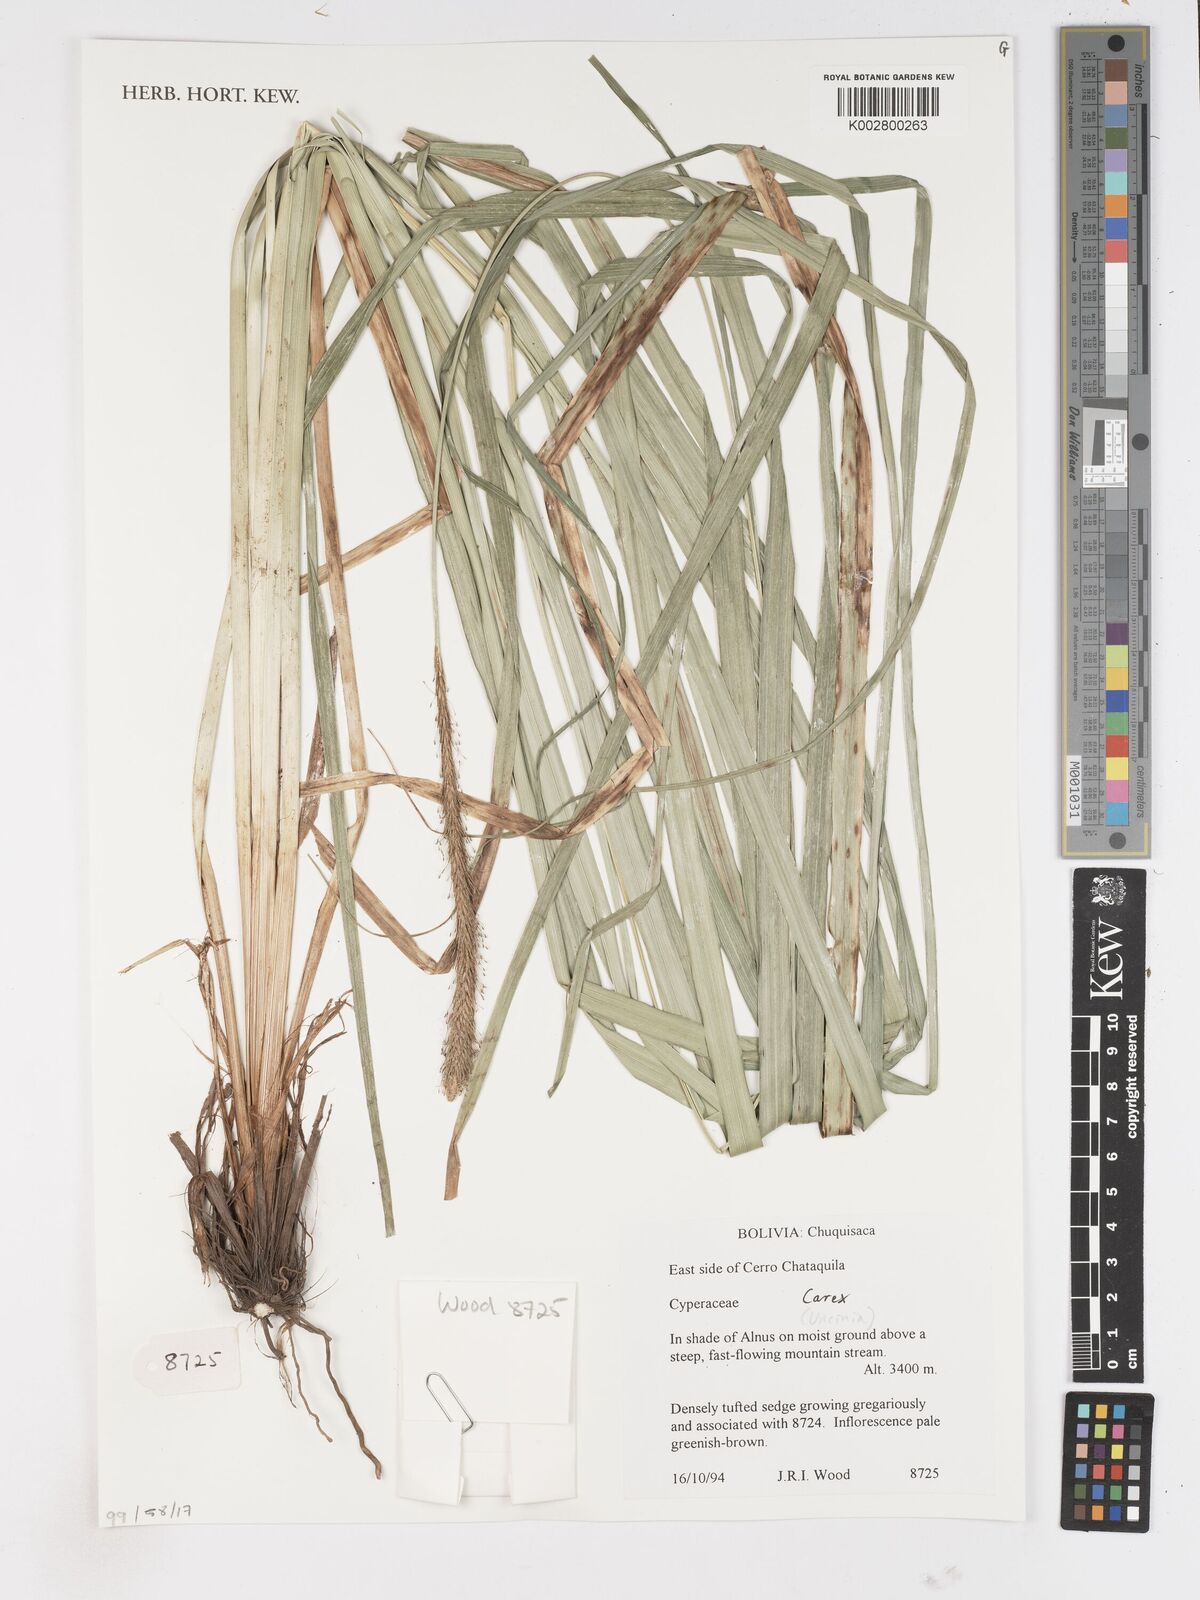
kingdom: Plantae
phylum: Tracheophyta
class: Liliopsida
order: Poales
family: Cyperaceae
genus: Carex
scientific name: Carex
